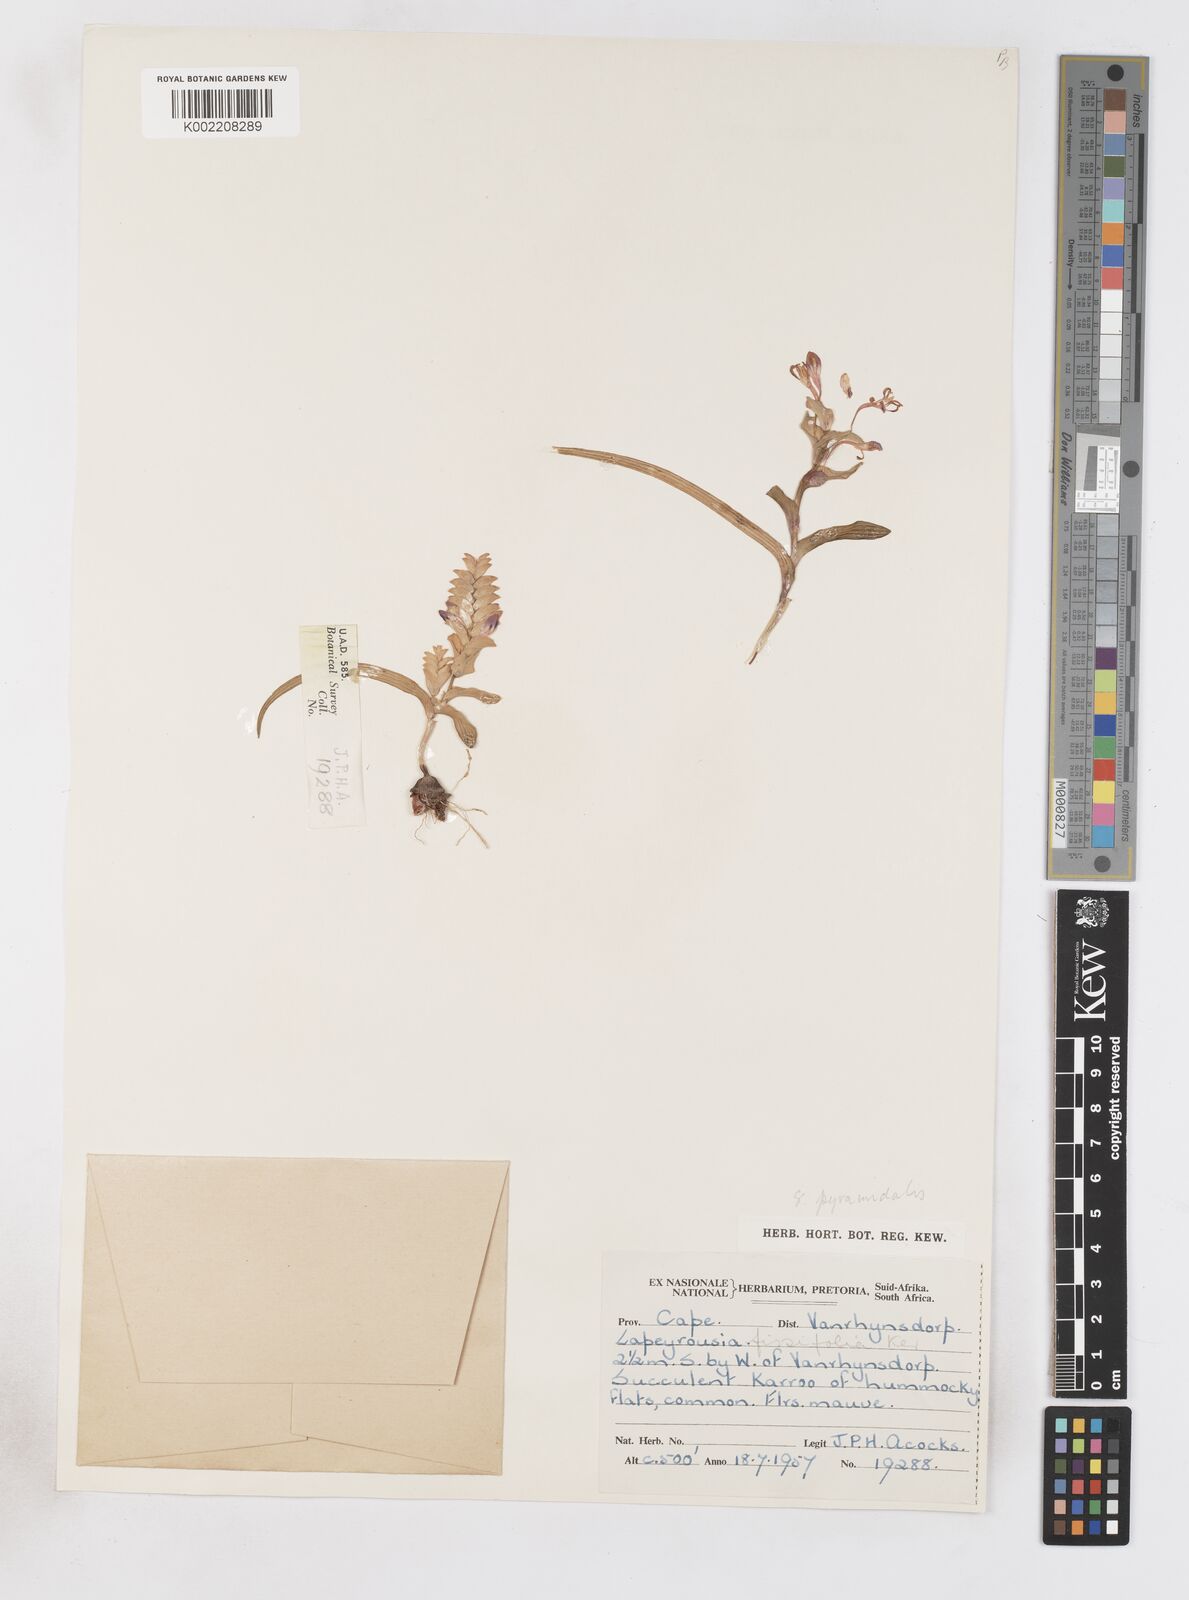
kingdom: Plantae
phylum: Tracheophyta
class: Liliopsida
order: Asparagales
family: Iridaceae
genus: Lapeirousia
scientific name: Lapeirousia pyramidalis
